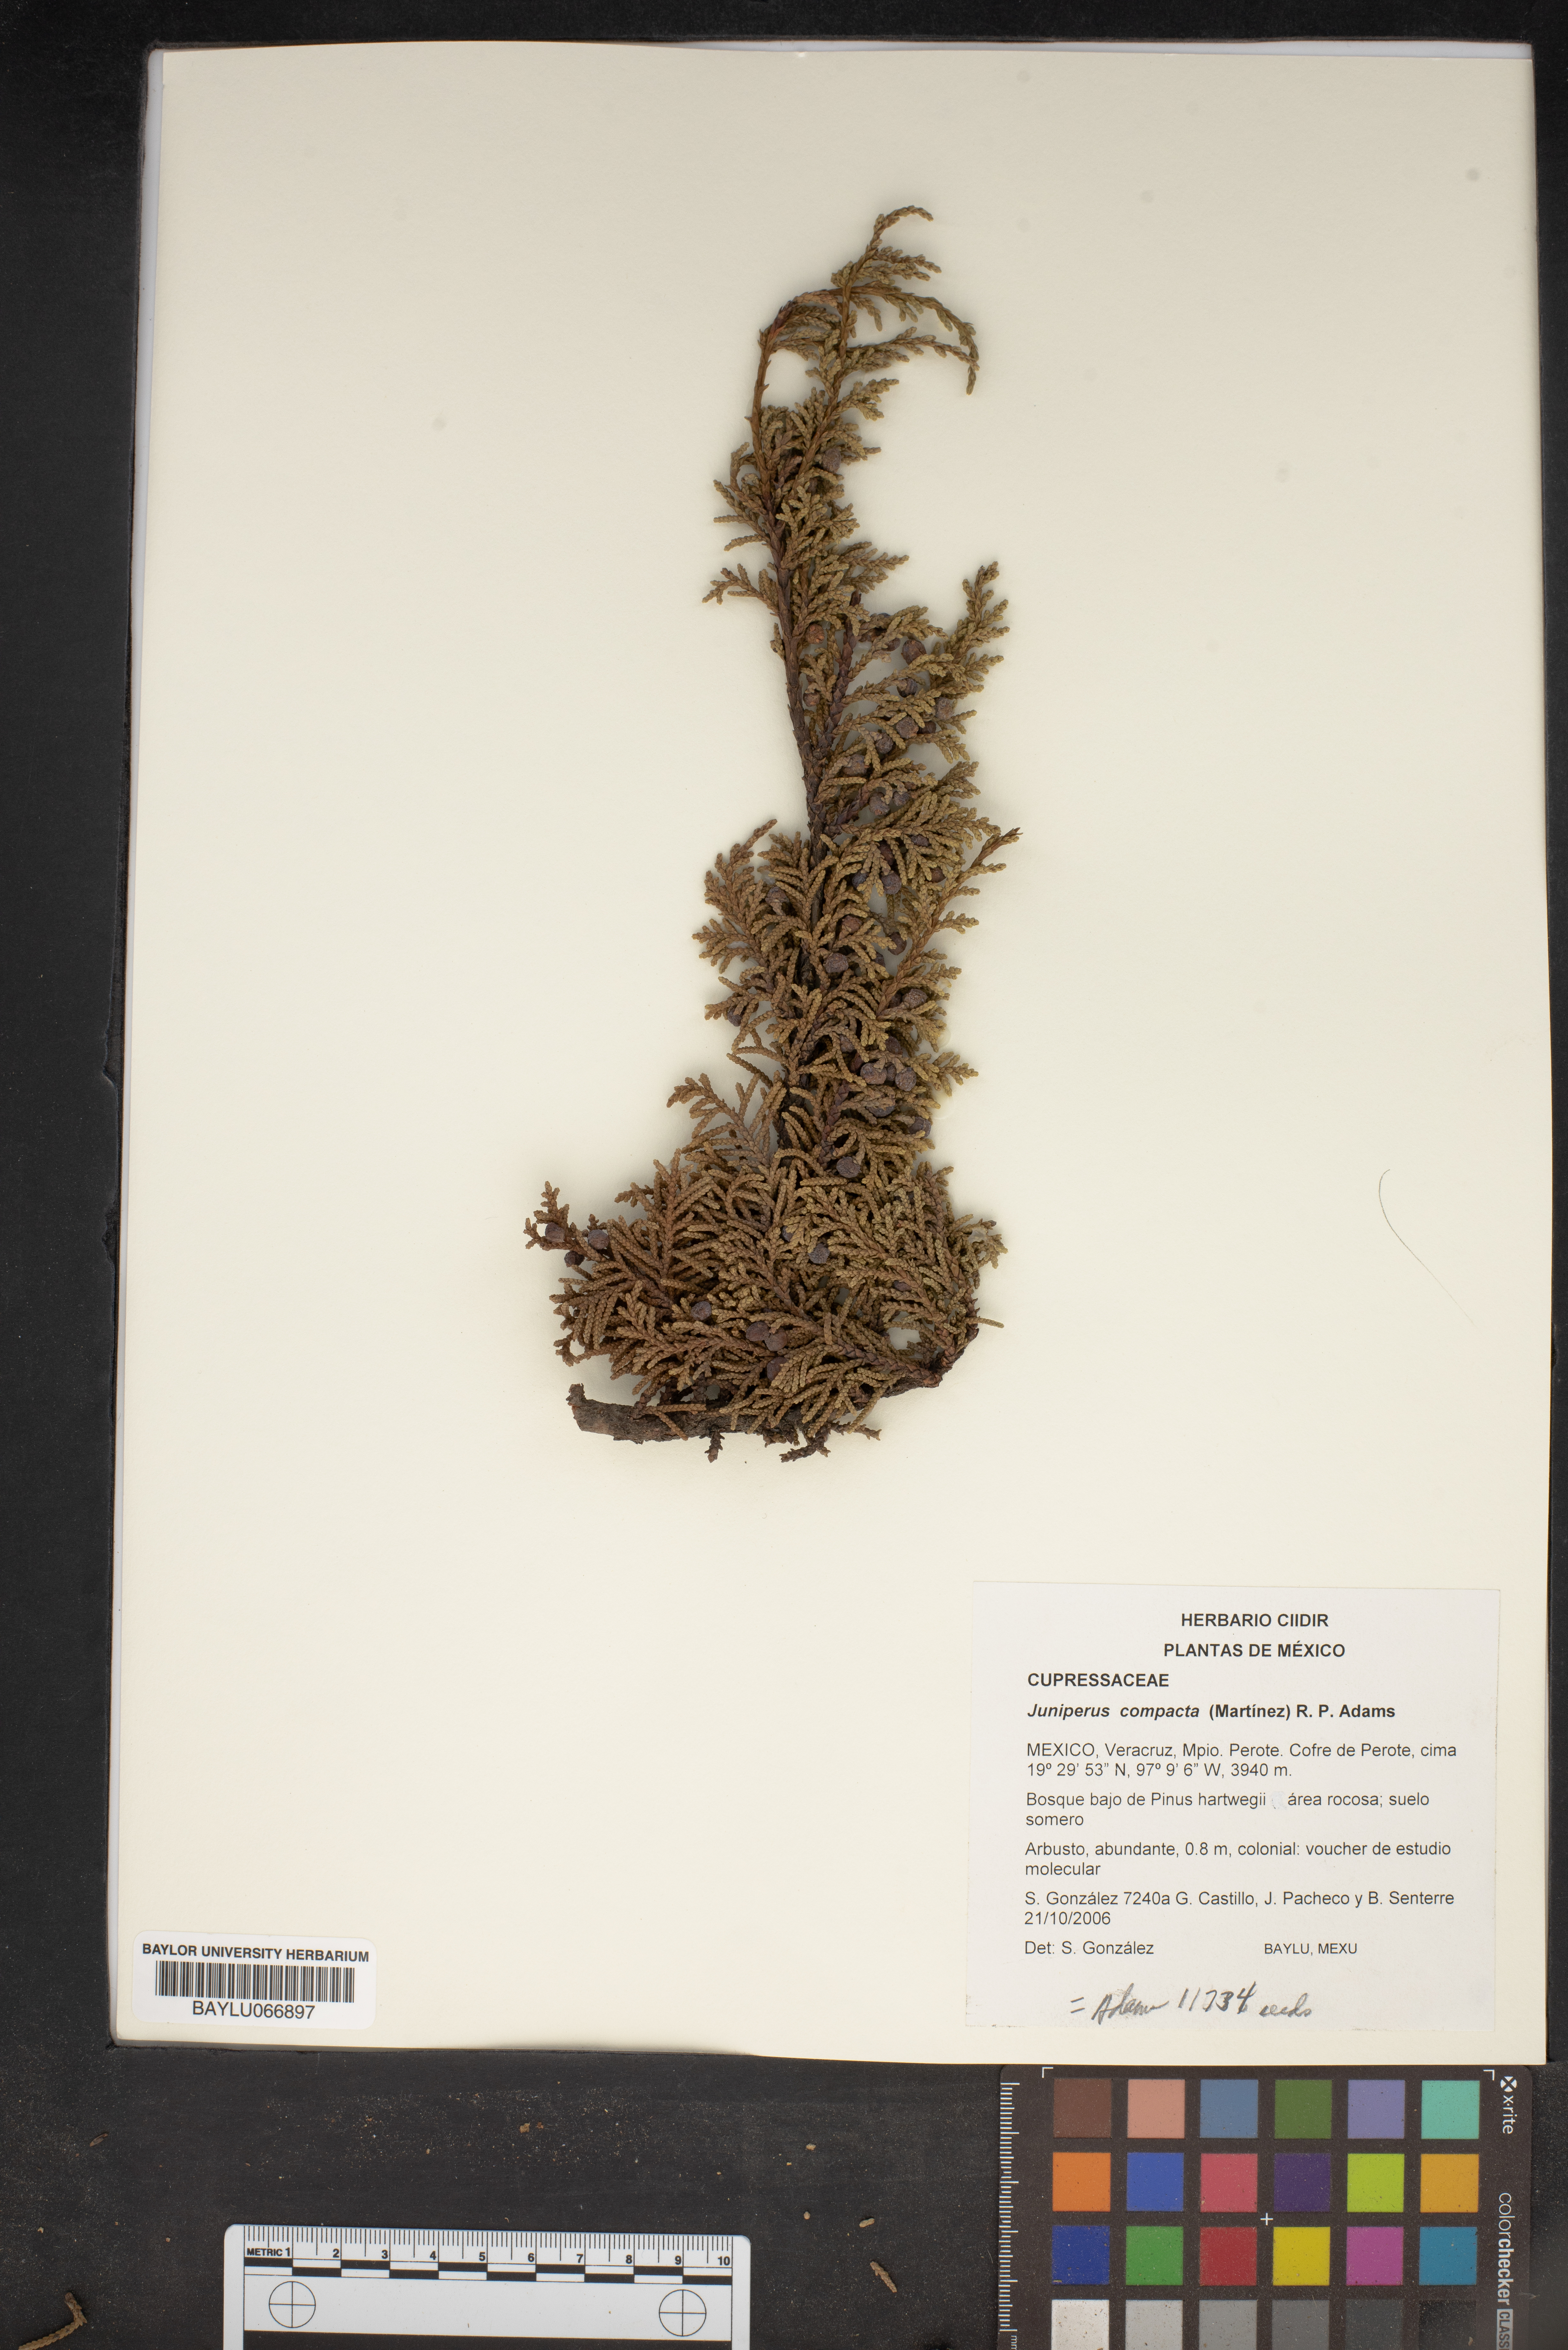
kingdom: Plantae
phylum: Tracheophyta
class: Pinopsida
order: Pinales
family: Cupressaceae
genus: Juniperus
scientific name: Juniperus monticola
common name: Mexican juniper
